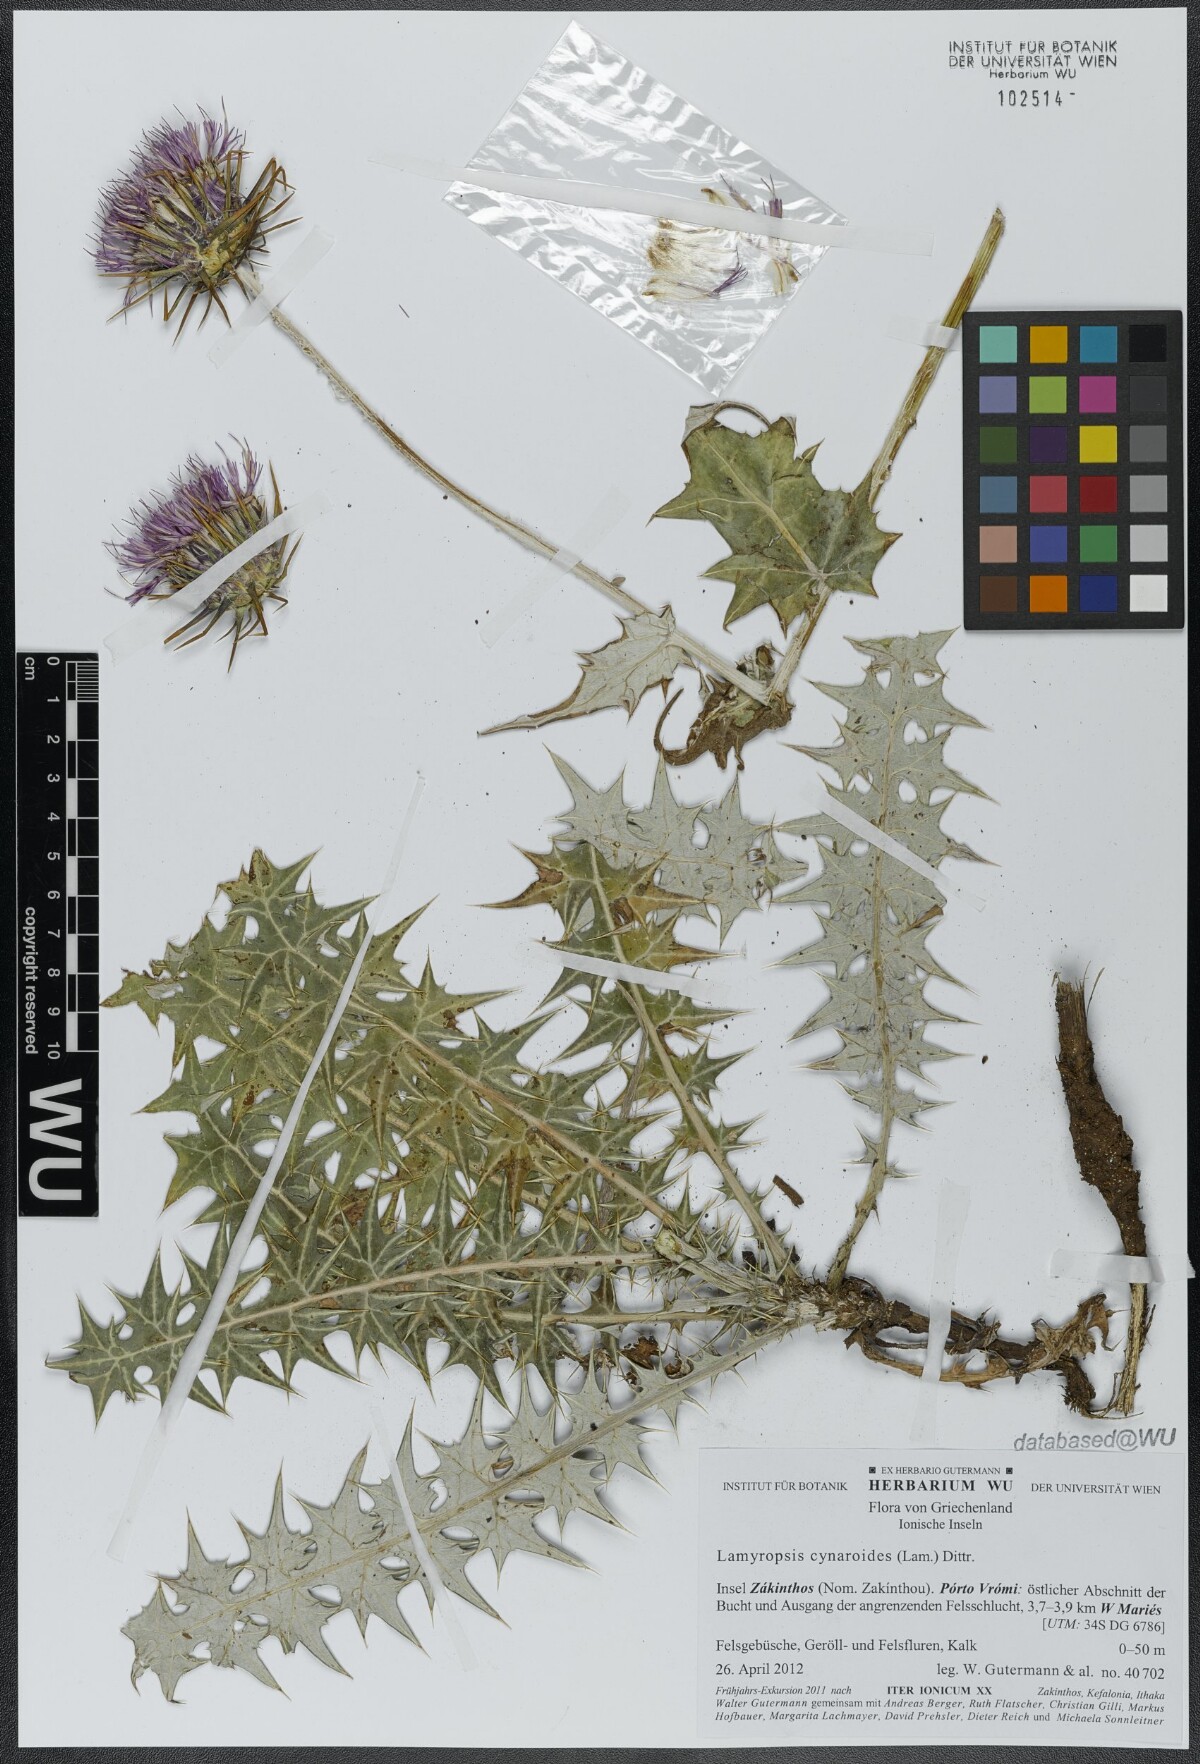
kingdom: Plantae
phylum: Tracheophyta
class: Magnoliopsida
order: Asterales
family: Asteraceae
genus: Lamyropsis
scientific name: Lamyropsis cynaroides
